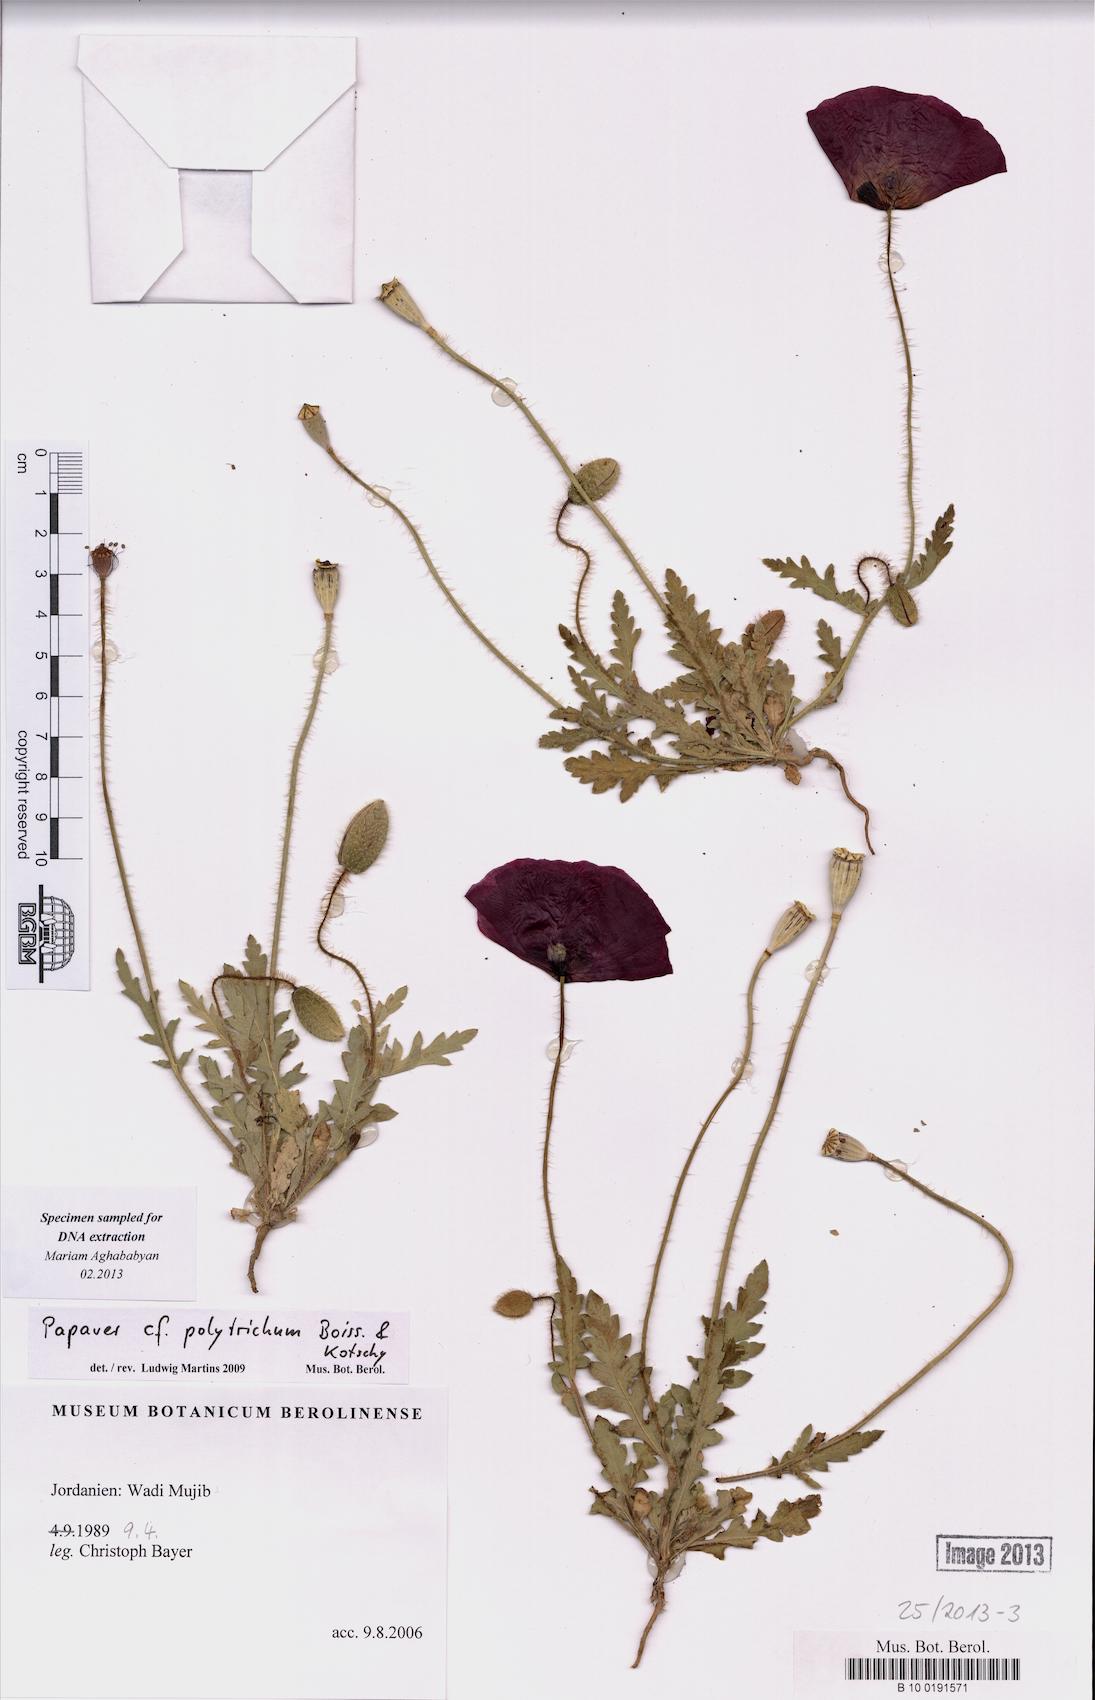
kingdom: Plantae
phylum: Tracheophyta
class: Magnoliopsida
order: Ranunculales
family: Papaveraceae
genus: Papaver
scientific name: Papaver rhoeas
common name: Corn poppy
